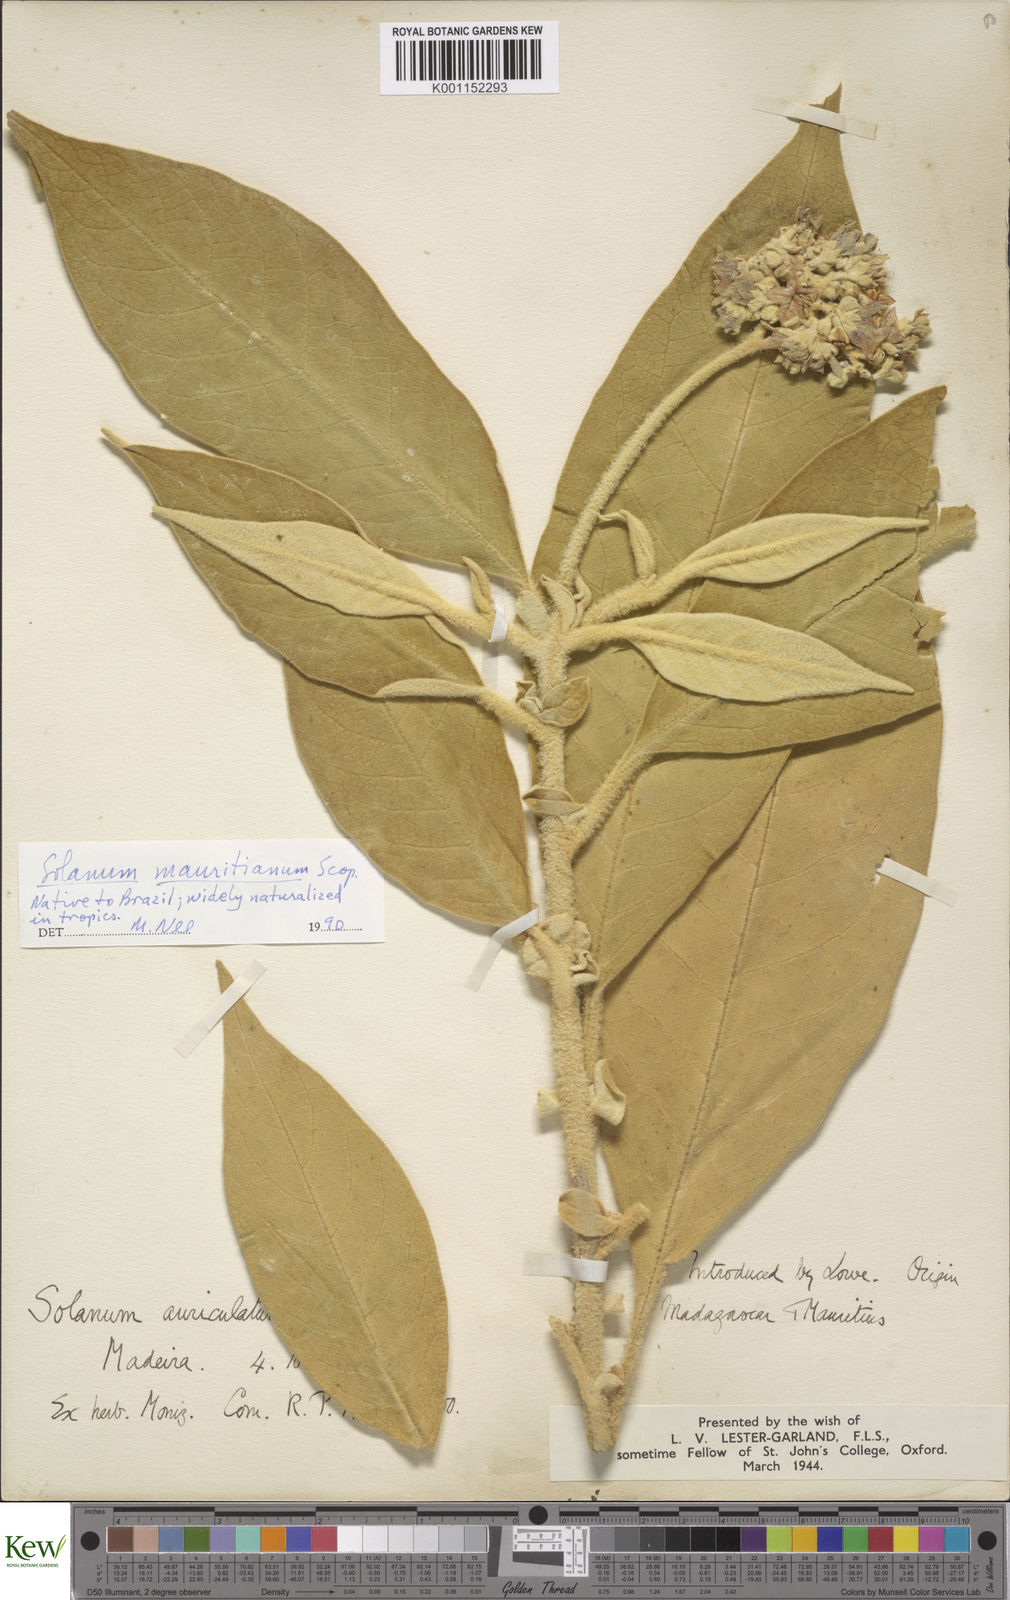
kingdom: Plantae
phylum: Tracheophyta
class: Magnoliopsida
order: Solanales
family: Solanaceae
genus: Solanum
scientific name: Solanum mauritianum
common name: Earleaf nightshade
